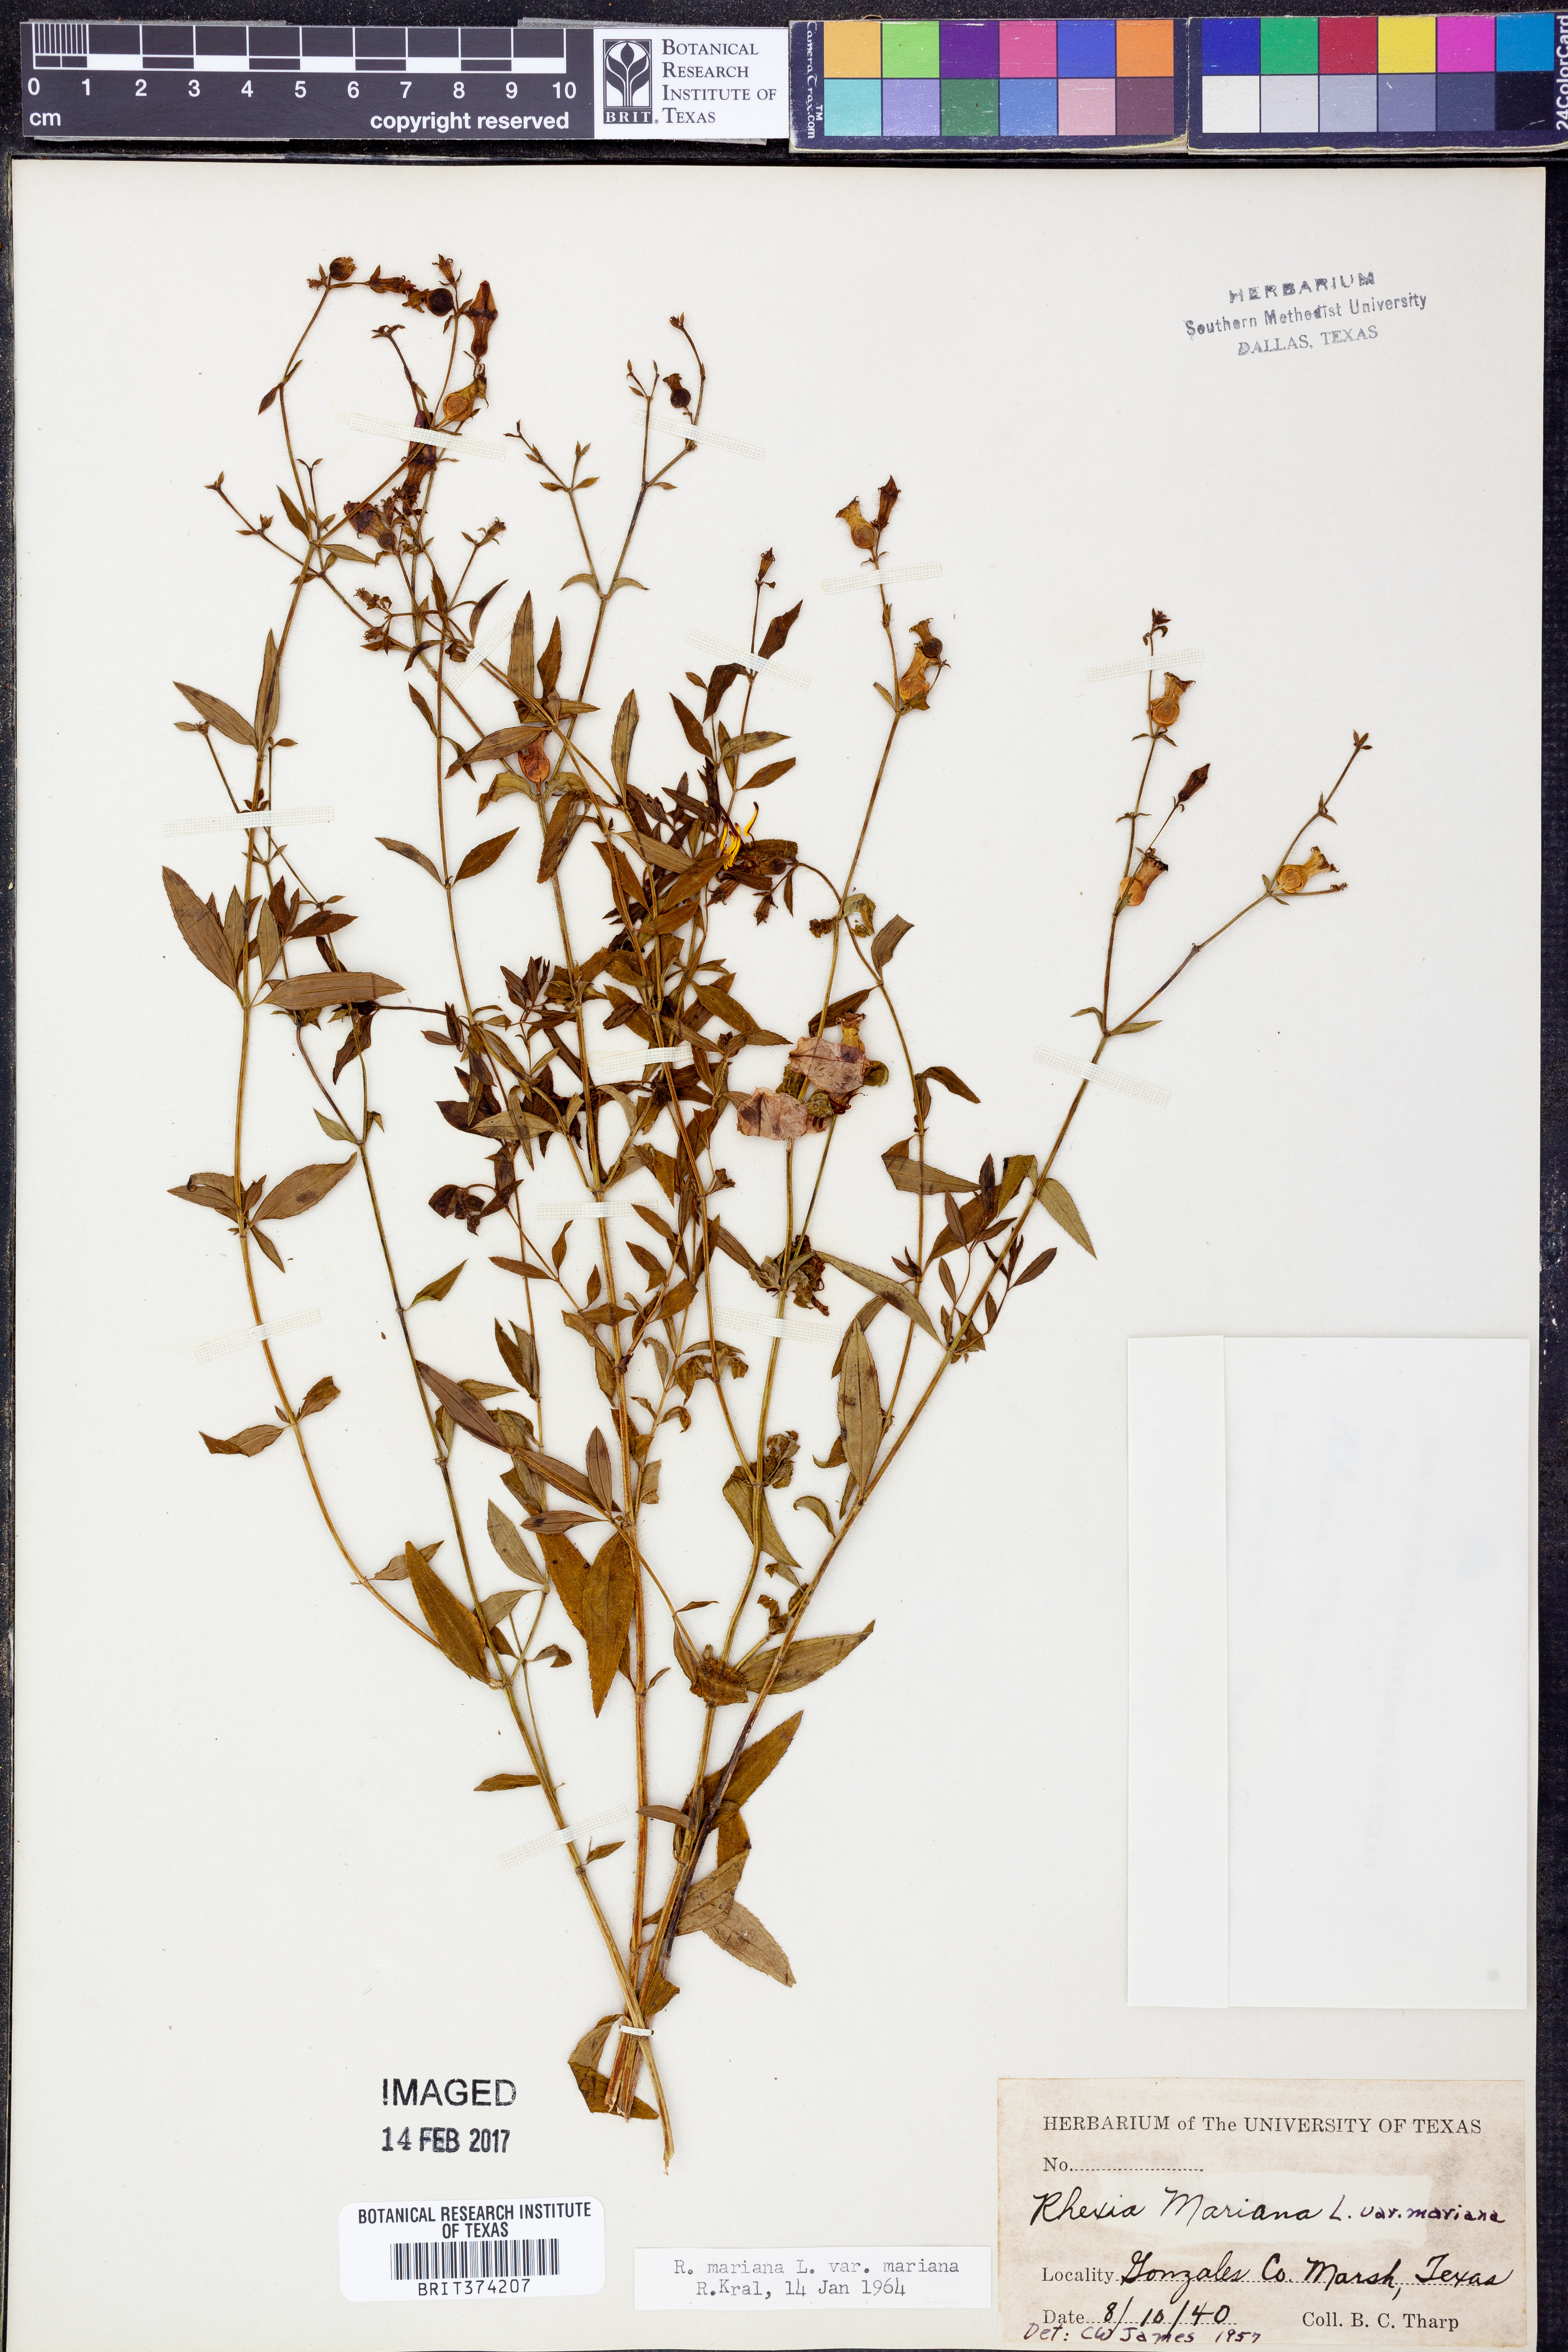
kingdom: Plantae
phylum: Tracheophyta
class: Magnoliopsida
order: Myrtales
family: Melastomataceae
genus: Rhexia
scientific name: Rhexia mariana
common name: Dull meadow-pitcher
